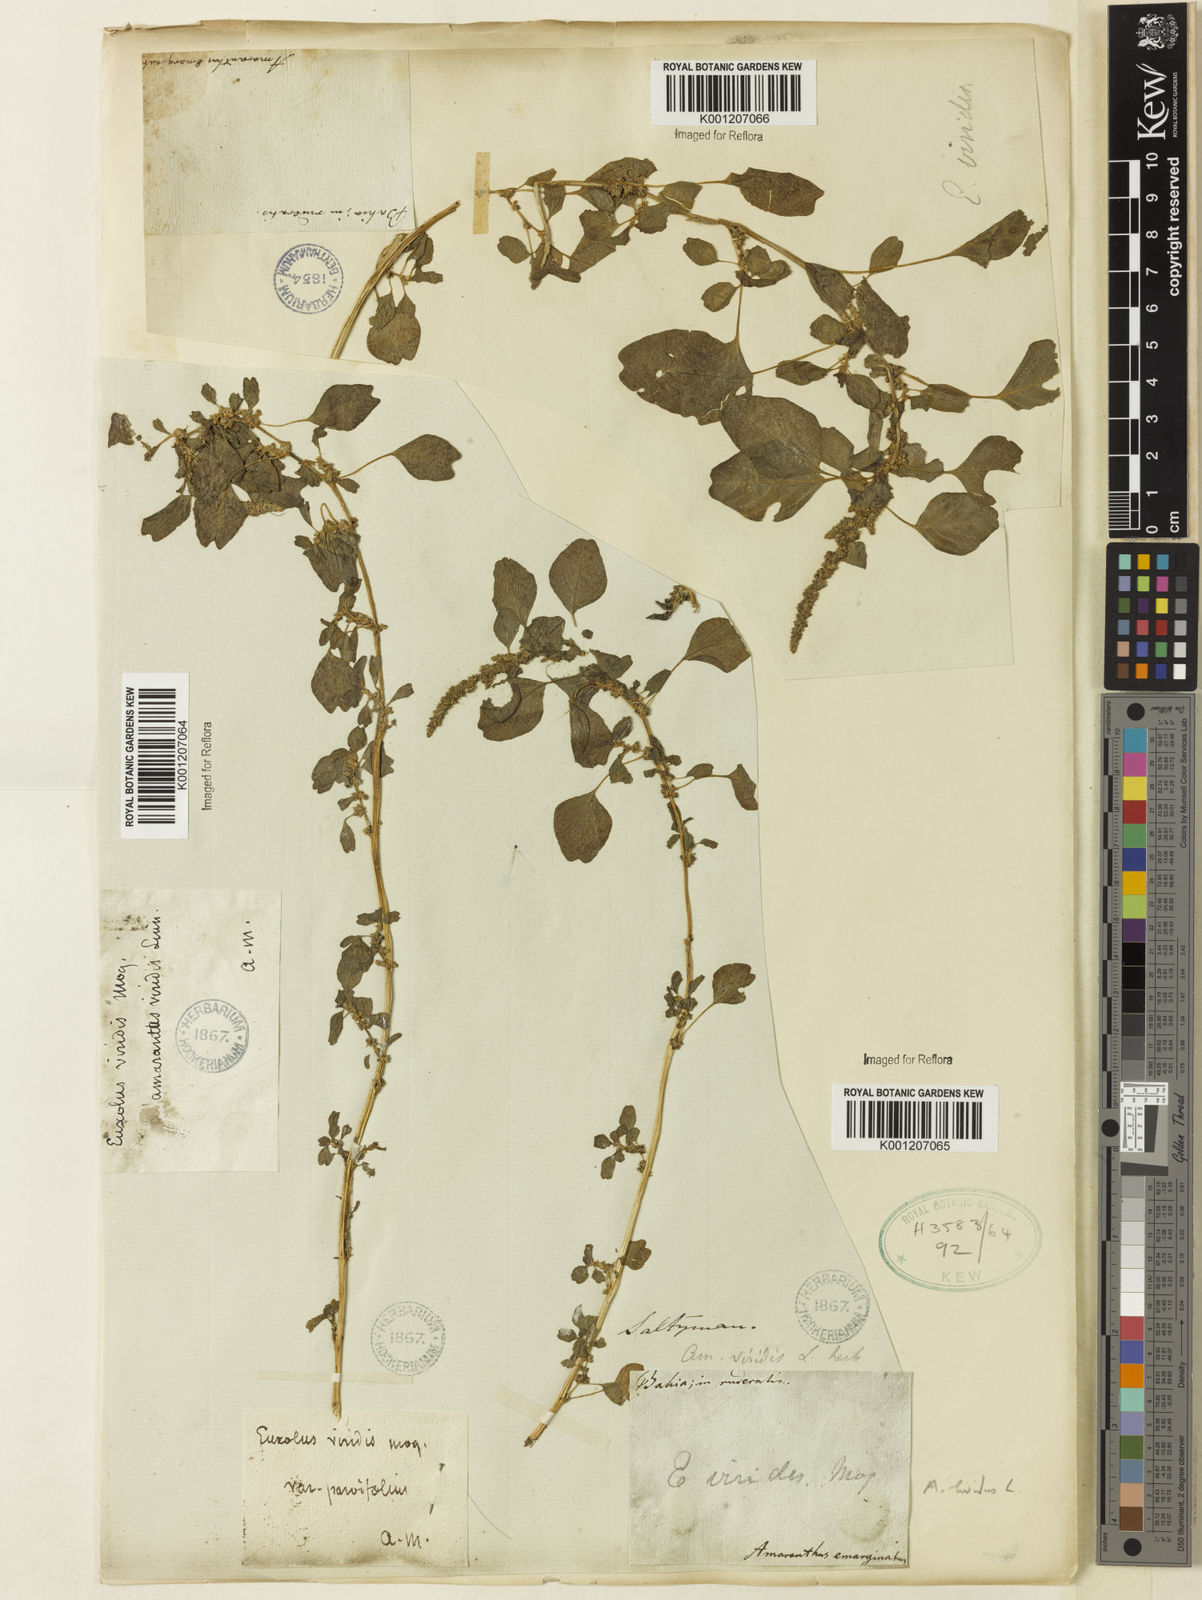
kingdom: Plantae
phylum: Tracheophyta
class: Magnoliopsida
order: Caryophyllales
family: Amaranthaceae
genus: Amaranthus
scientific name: Amaranthus blitum
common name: Purple amaranth
